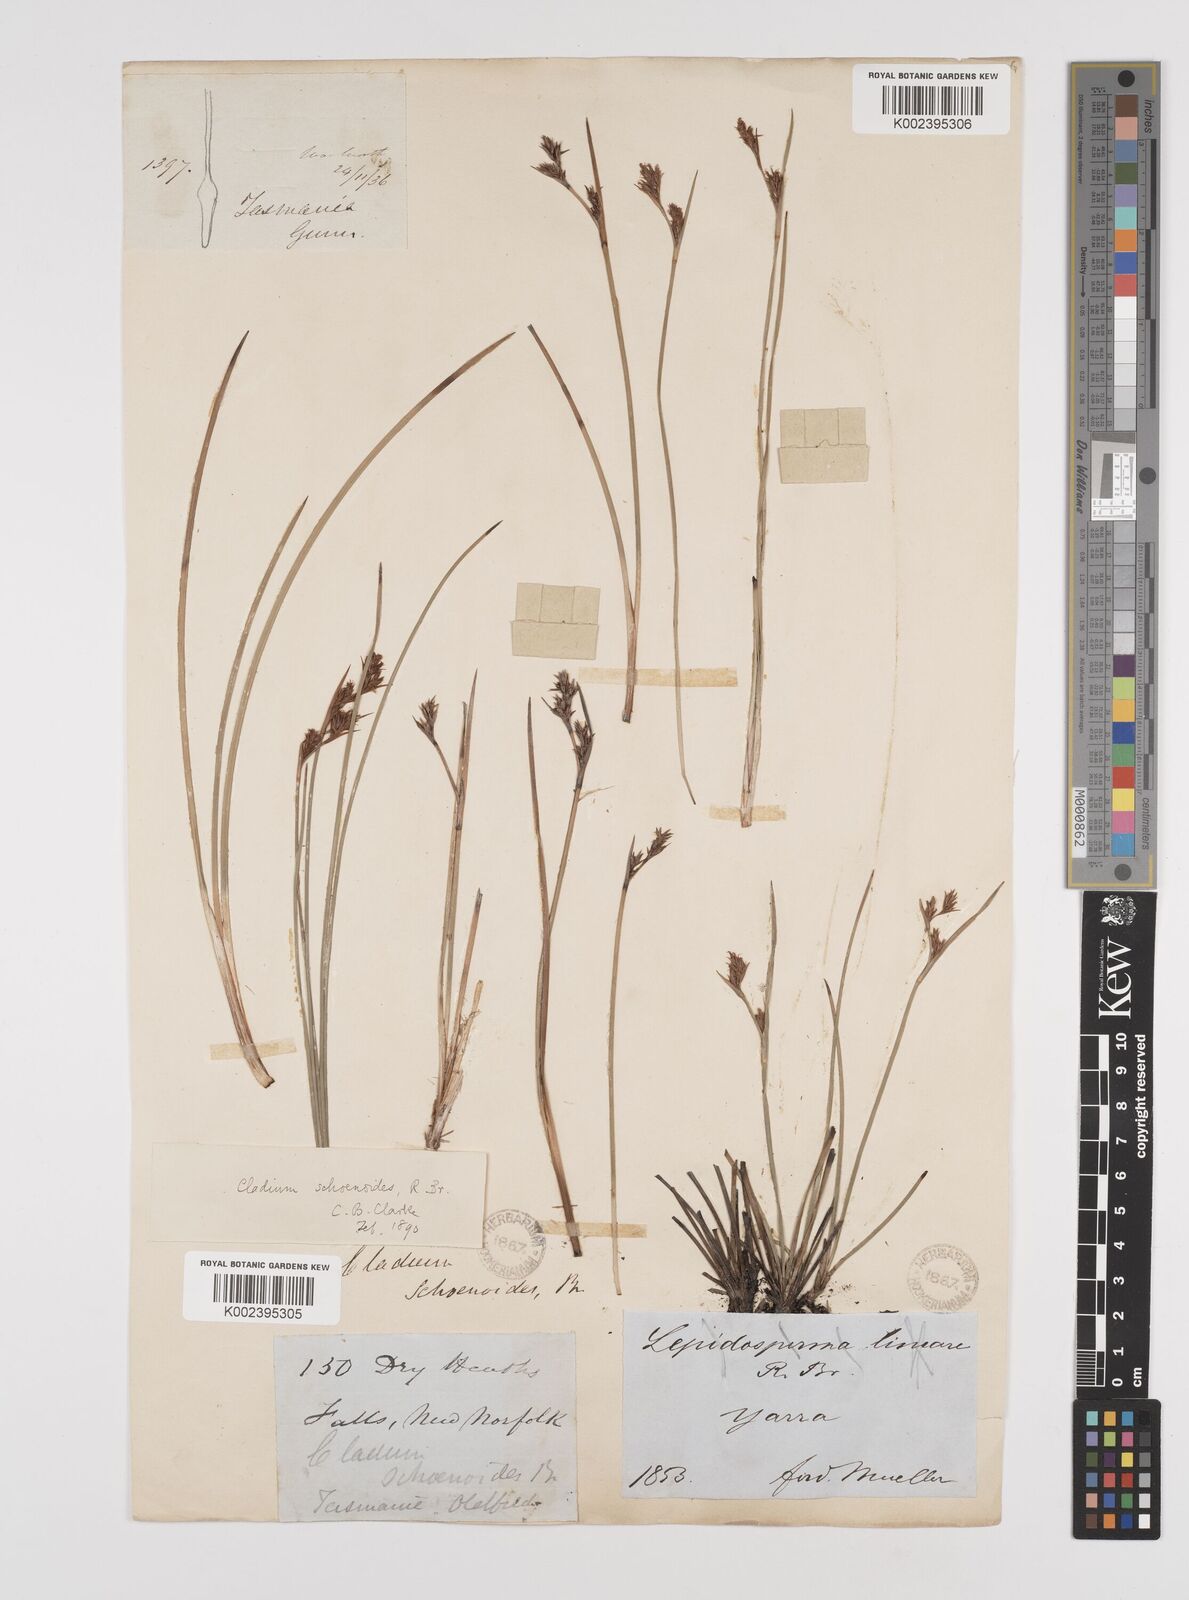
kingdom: Plantae
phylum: Tracheophyta
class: Liliopsida
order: Poales
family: Cyperaceae
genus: Machaerina
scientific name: Machaerina acuta
